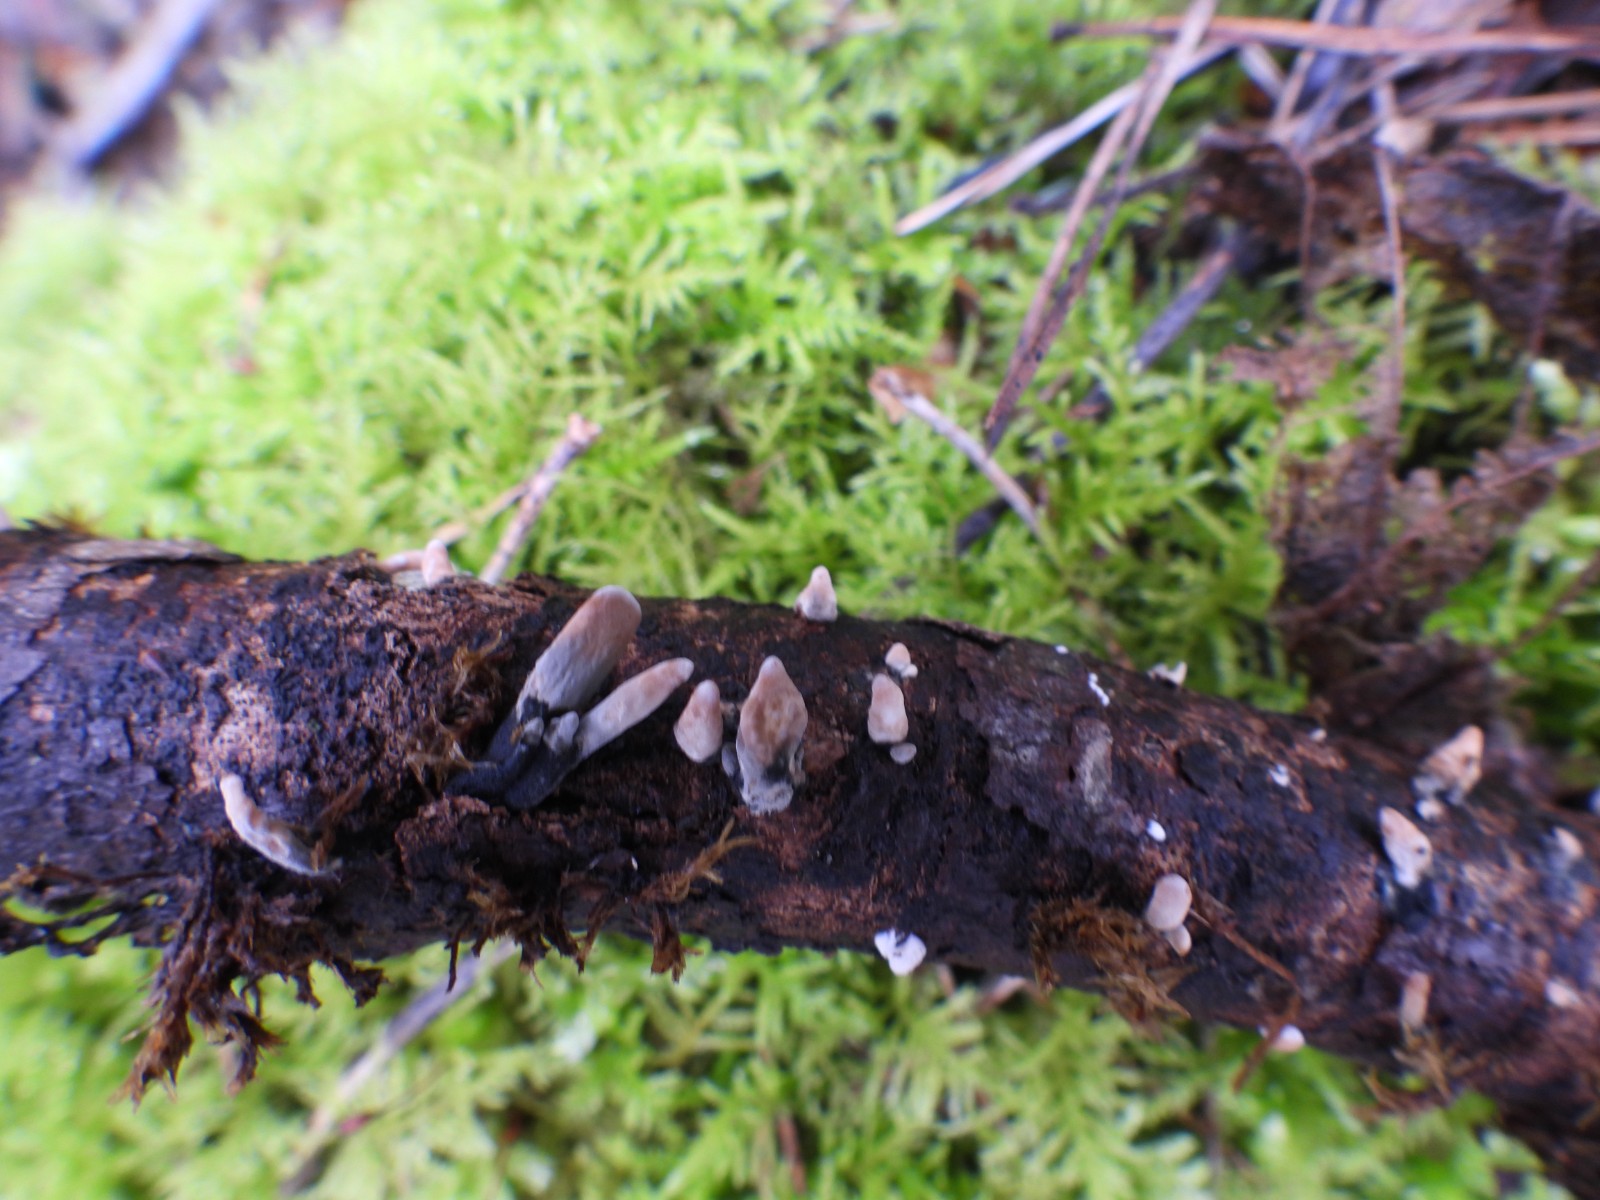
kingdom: Fungi
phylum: Ascomycota
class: Sordariomycetes
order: Xylariales
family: Xylariaceae
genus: Xylaria
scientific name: Xylaria hypoxylon
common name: grenet stødsvamp
